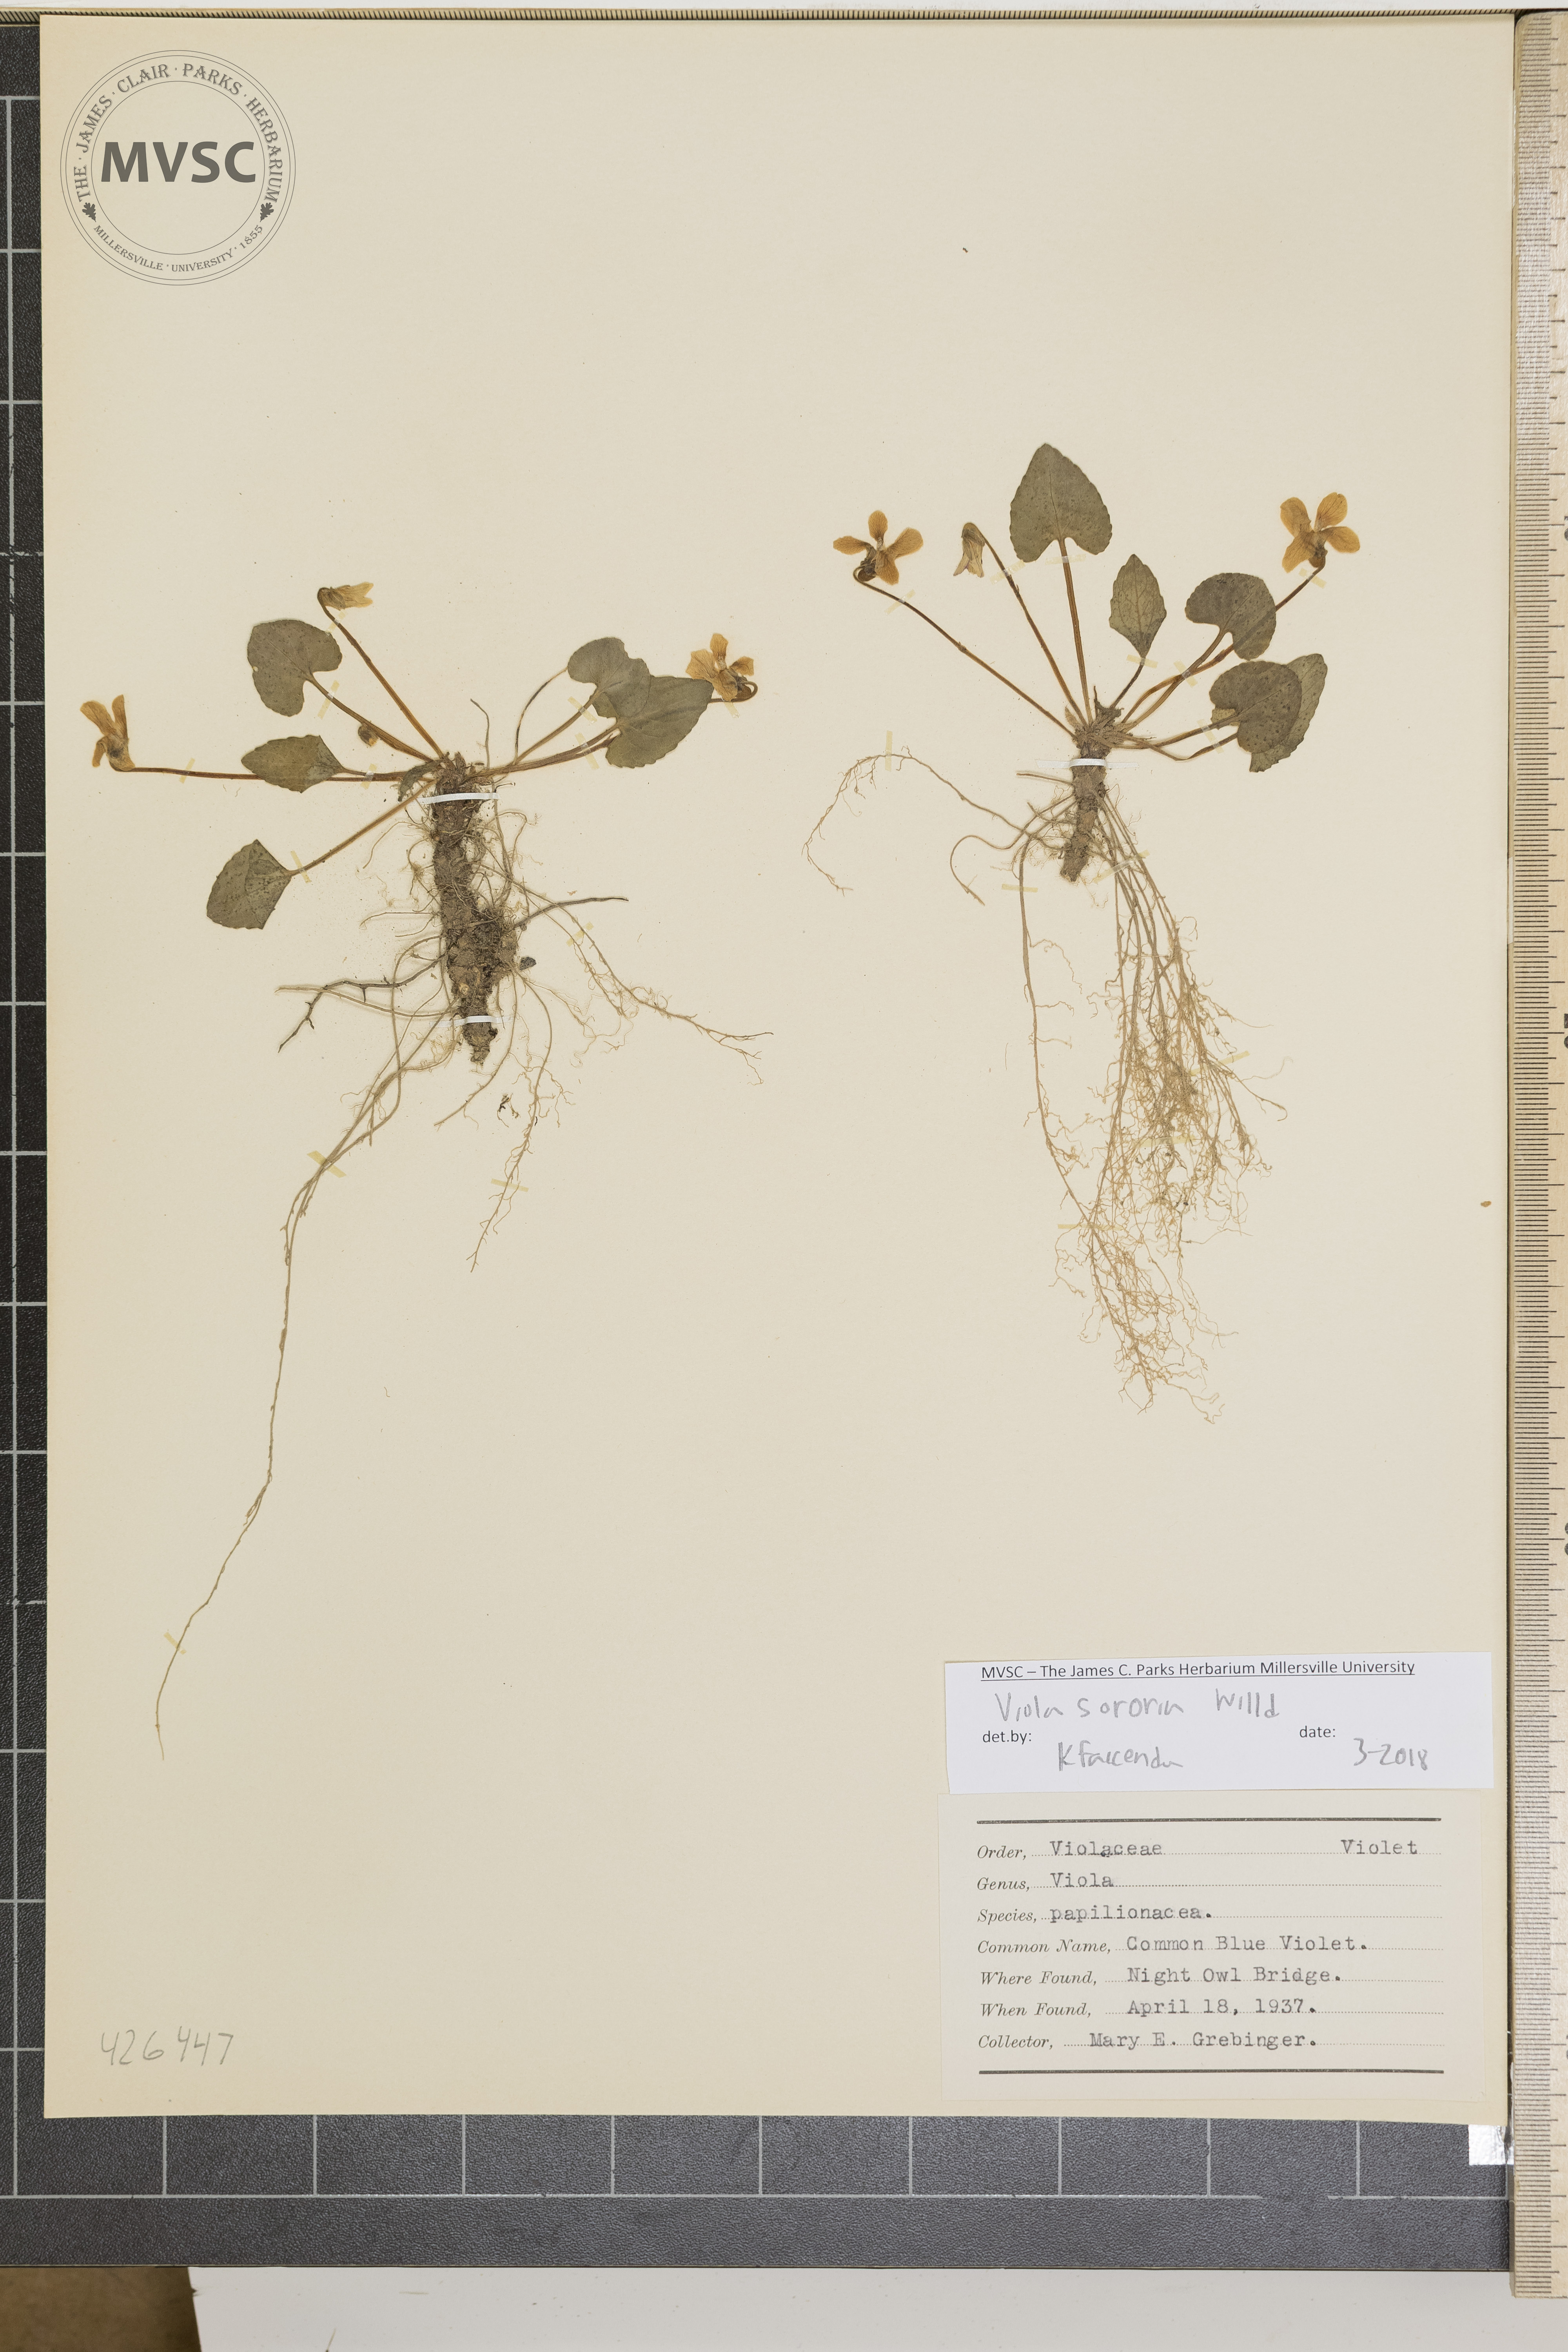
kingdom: Plantae
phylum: Tracheophyta
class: Magnoliopsida
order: Malpighiales
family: Violaceae
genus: Viola
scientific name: Viola sororia
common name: Common blue violet
